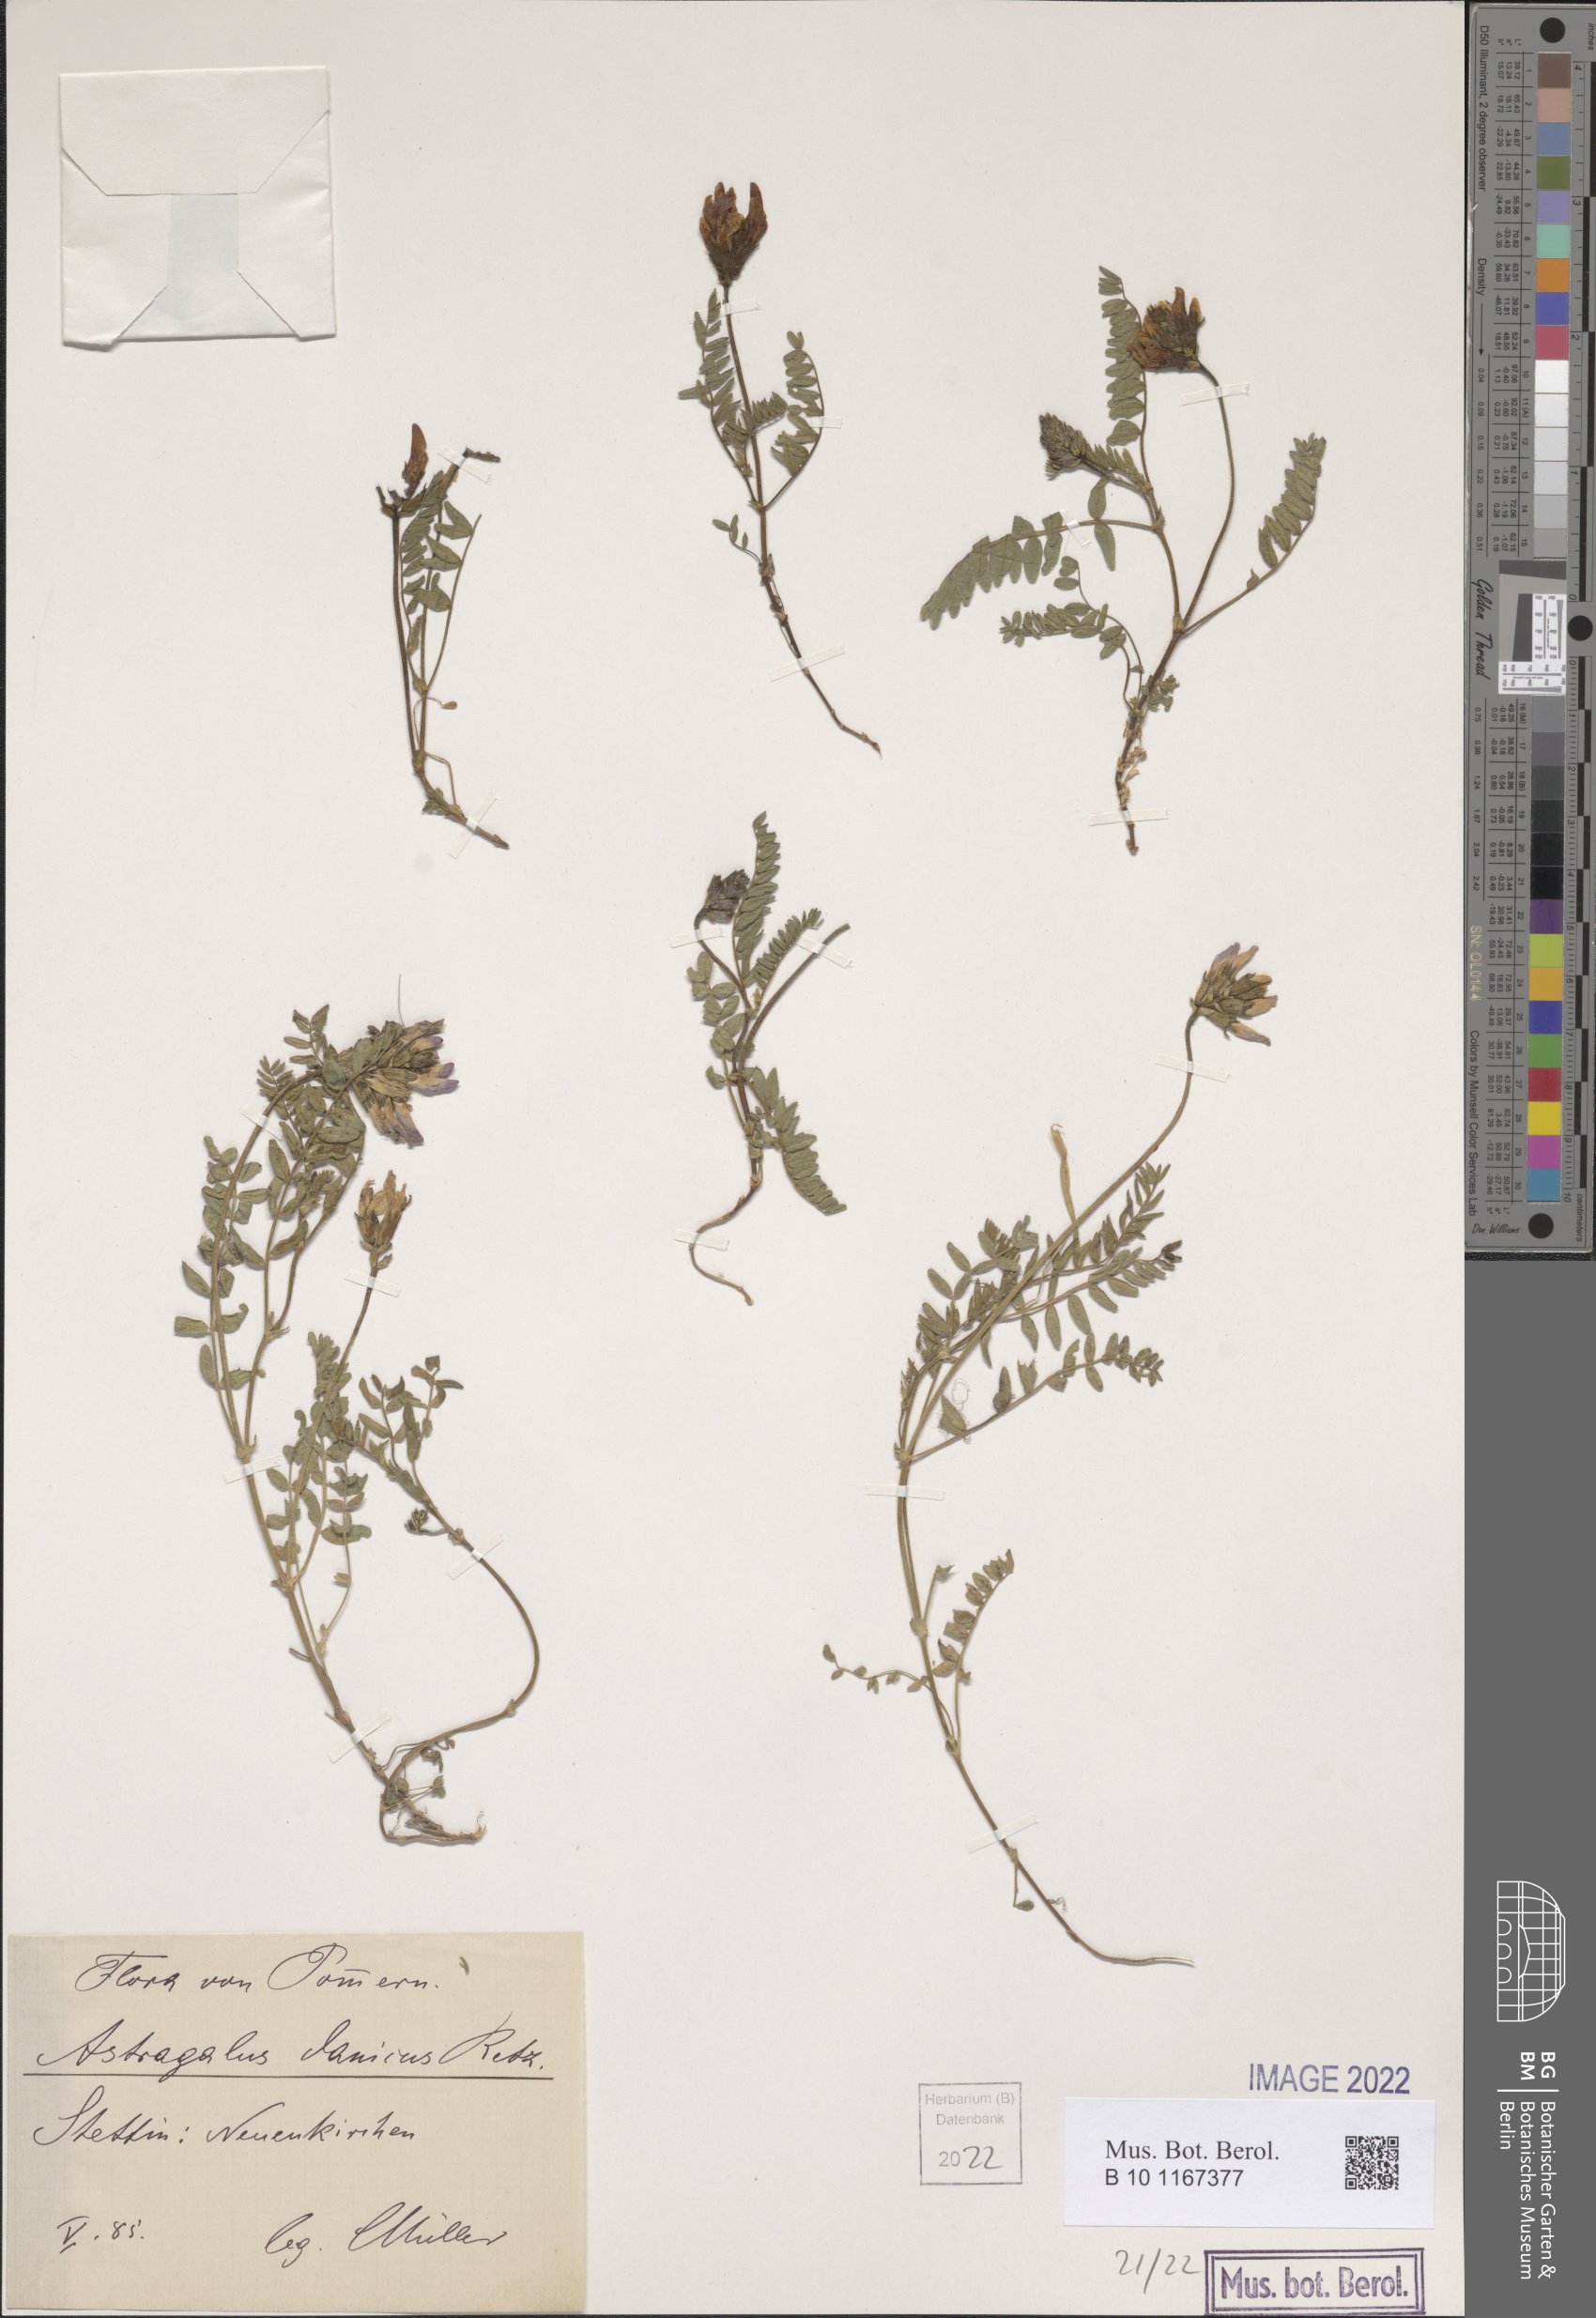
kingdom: Plantae
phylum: Tracheophyta
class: Magnoliopsida
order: Fabales
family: Fabaceae
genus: Astragalus
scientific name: Astragalus danicus
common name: Purple milk-vetch
